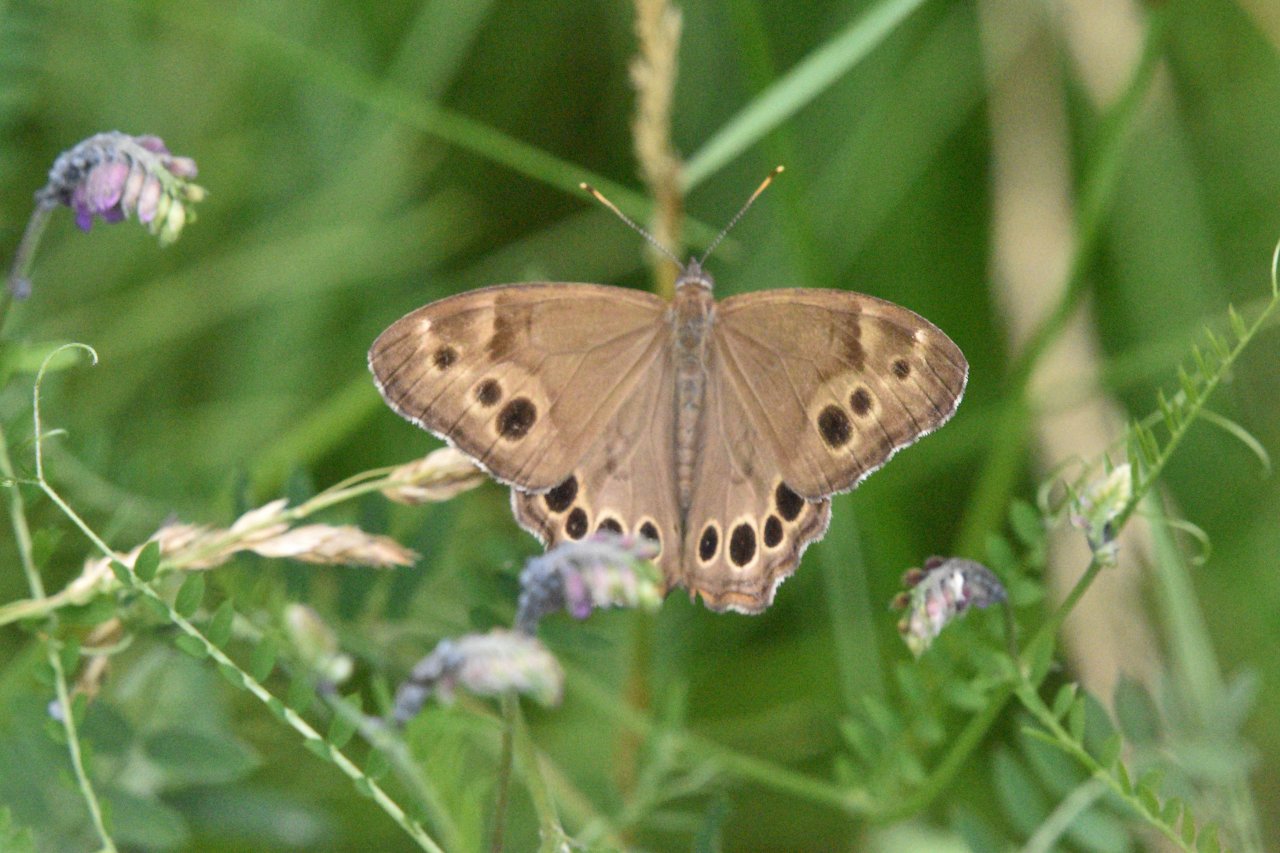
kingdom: Animalia
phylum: Arthropoda
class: Insecta
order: Lepidoptera
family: Nymphalidae
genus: Lethe
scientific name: Lethe anthedon
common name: Northern Pearly-Eye
